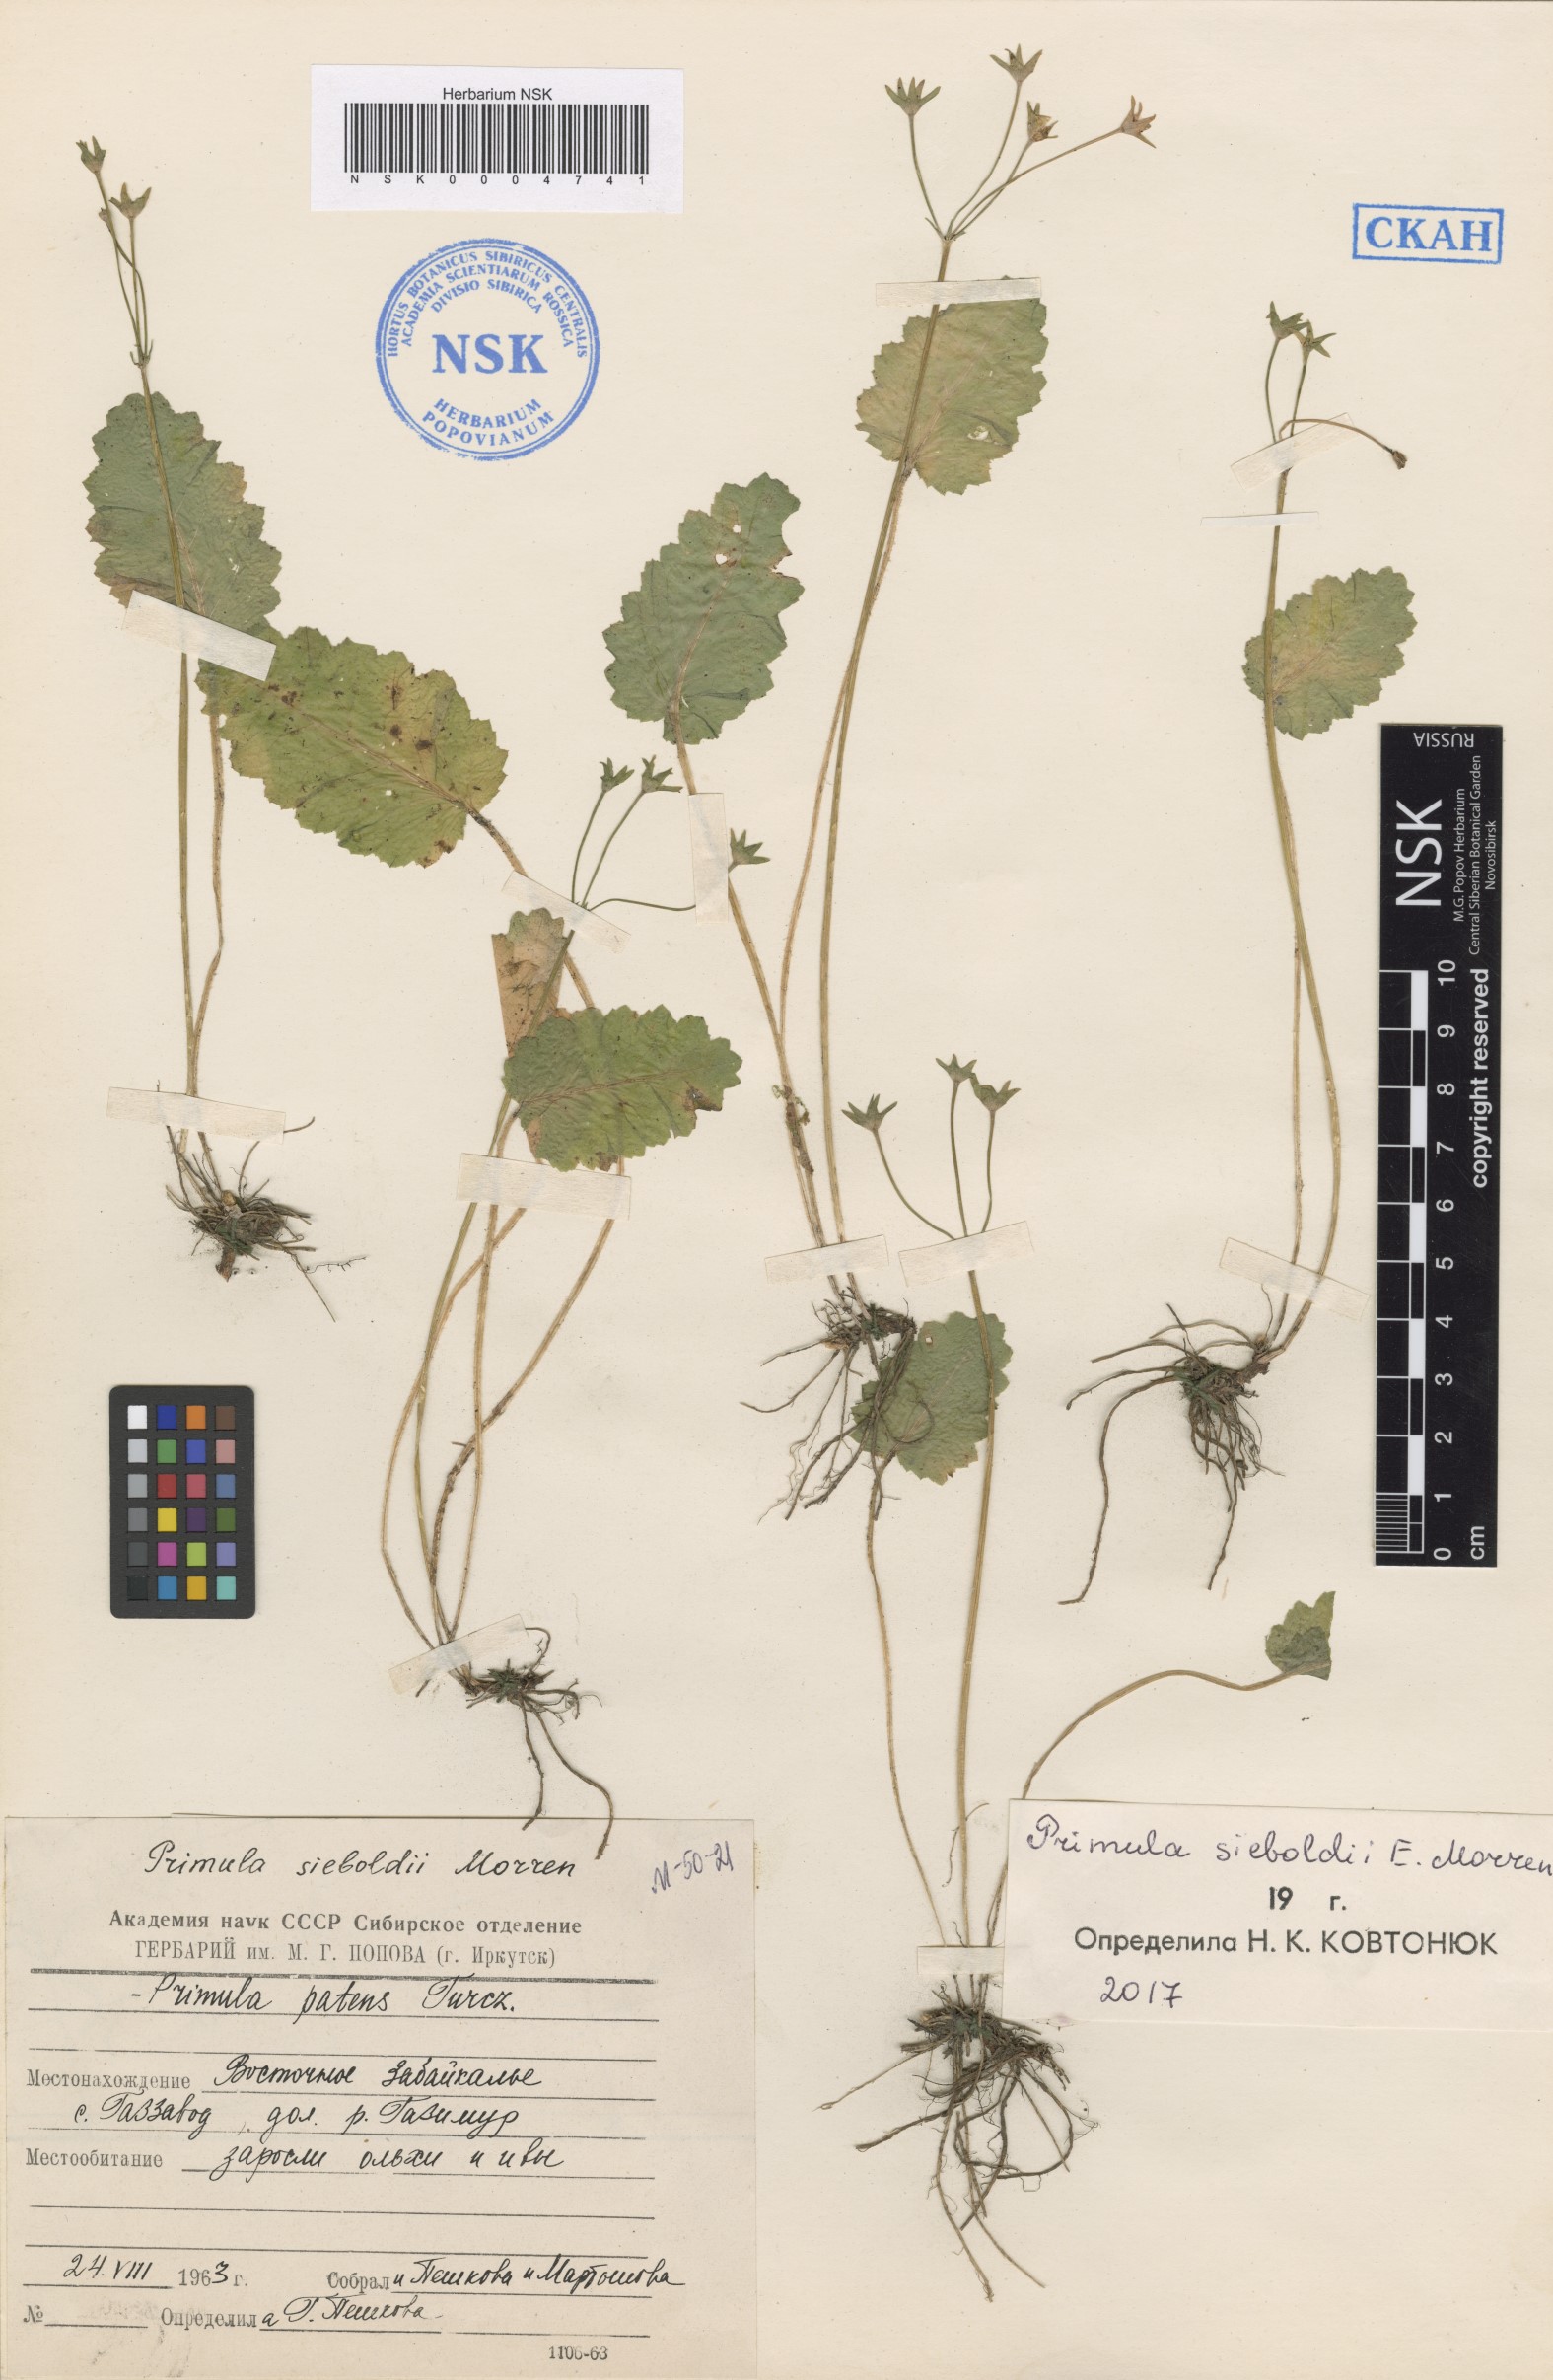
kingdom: Plantae
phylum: Tracheophyta
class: Magnoliopsida
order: Ericales
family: Primulaceae
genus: Primula
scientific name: Primula sieboldii
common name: Japanese primrose
